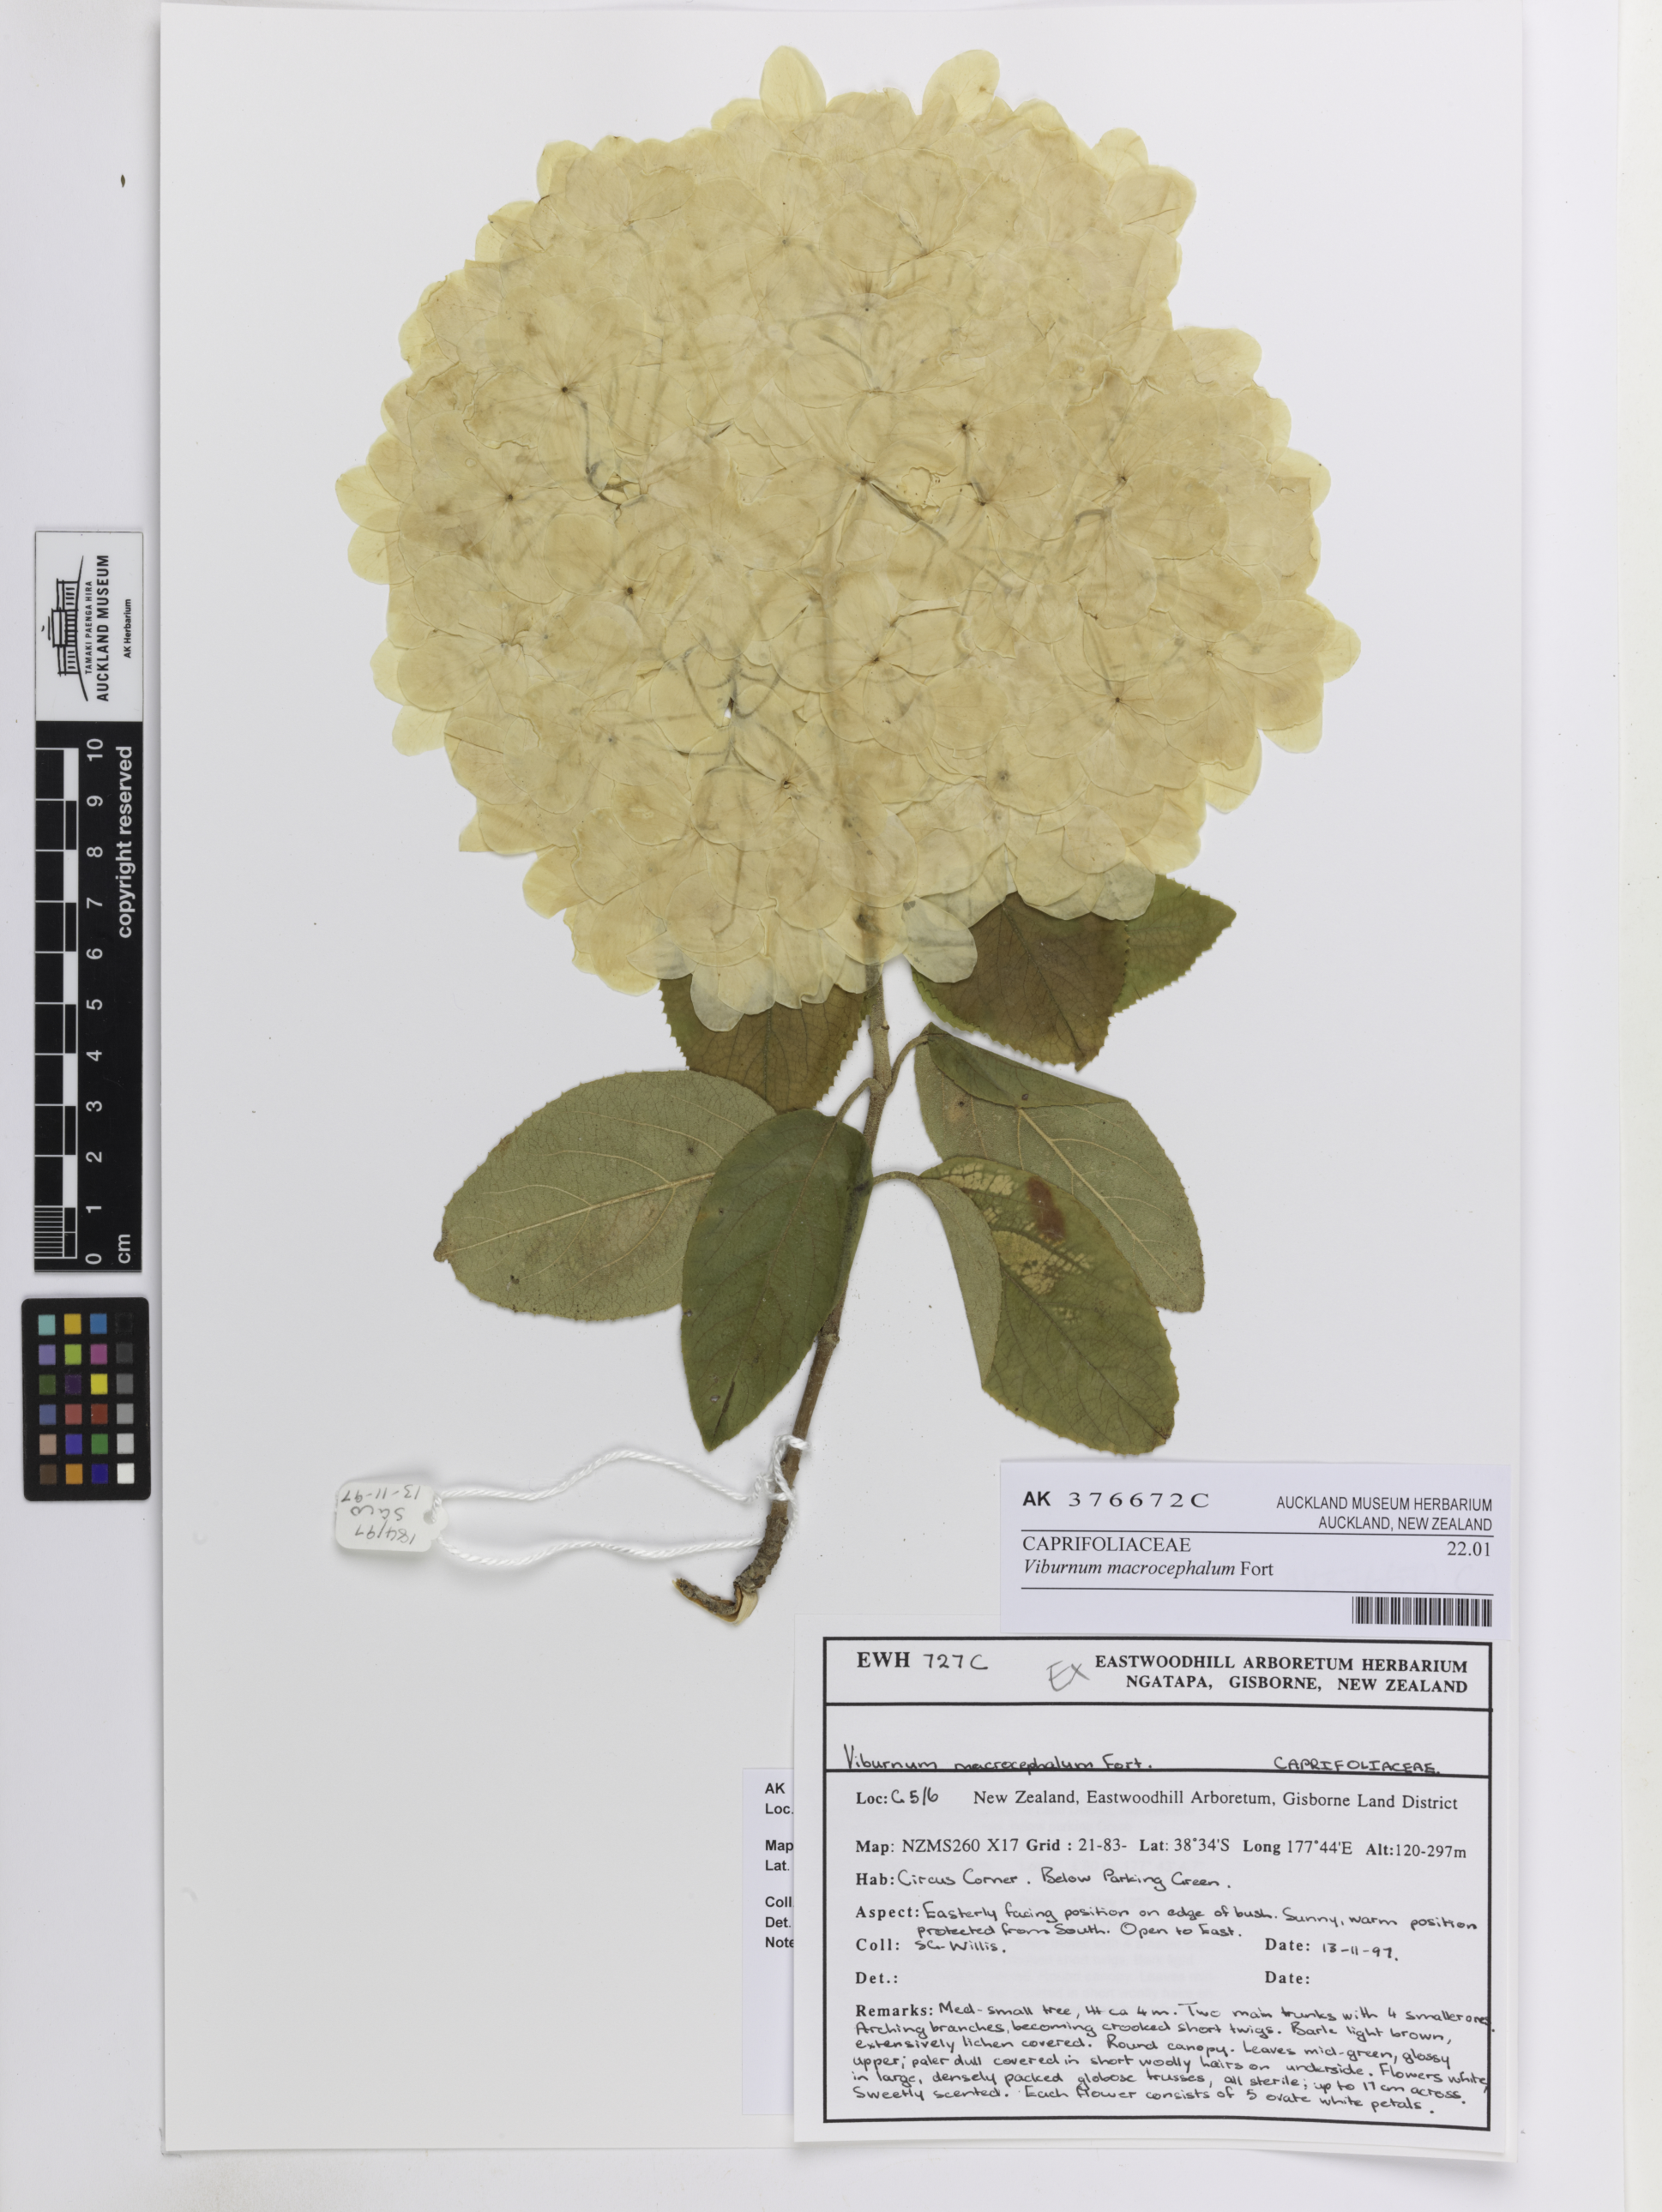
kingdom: Plantae
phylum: Tracheophyta
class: Magnoliopsida
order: Dipsacales
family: Viburnaceae
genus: Viburnum
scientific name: Viburnum macrocephalum
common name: Chinese snowball viburnum
